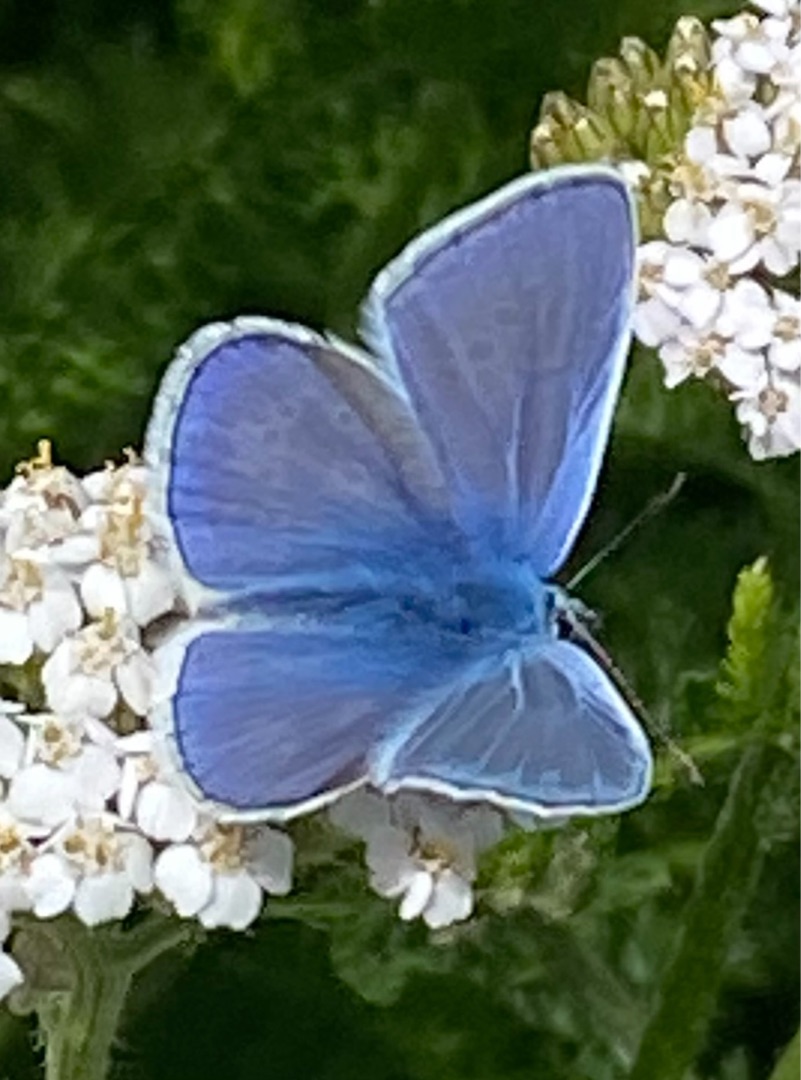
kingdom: Animalia
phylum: Arthropoda
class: Insecta
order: Lepidoptera
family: Lycaenidae
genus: Polyommatus
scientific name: Polyommatus icarus
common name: Almindelig blåfugl
